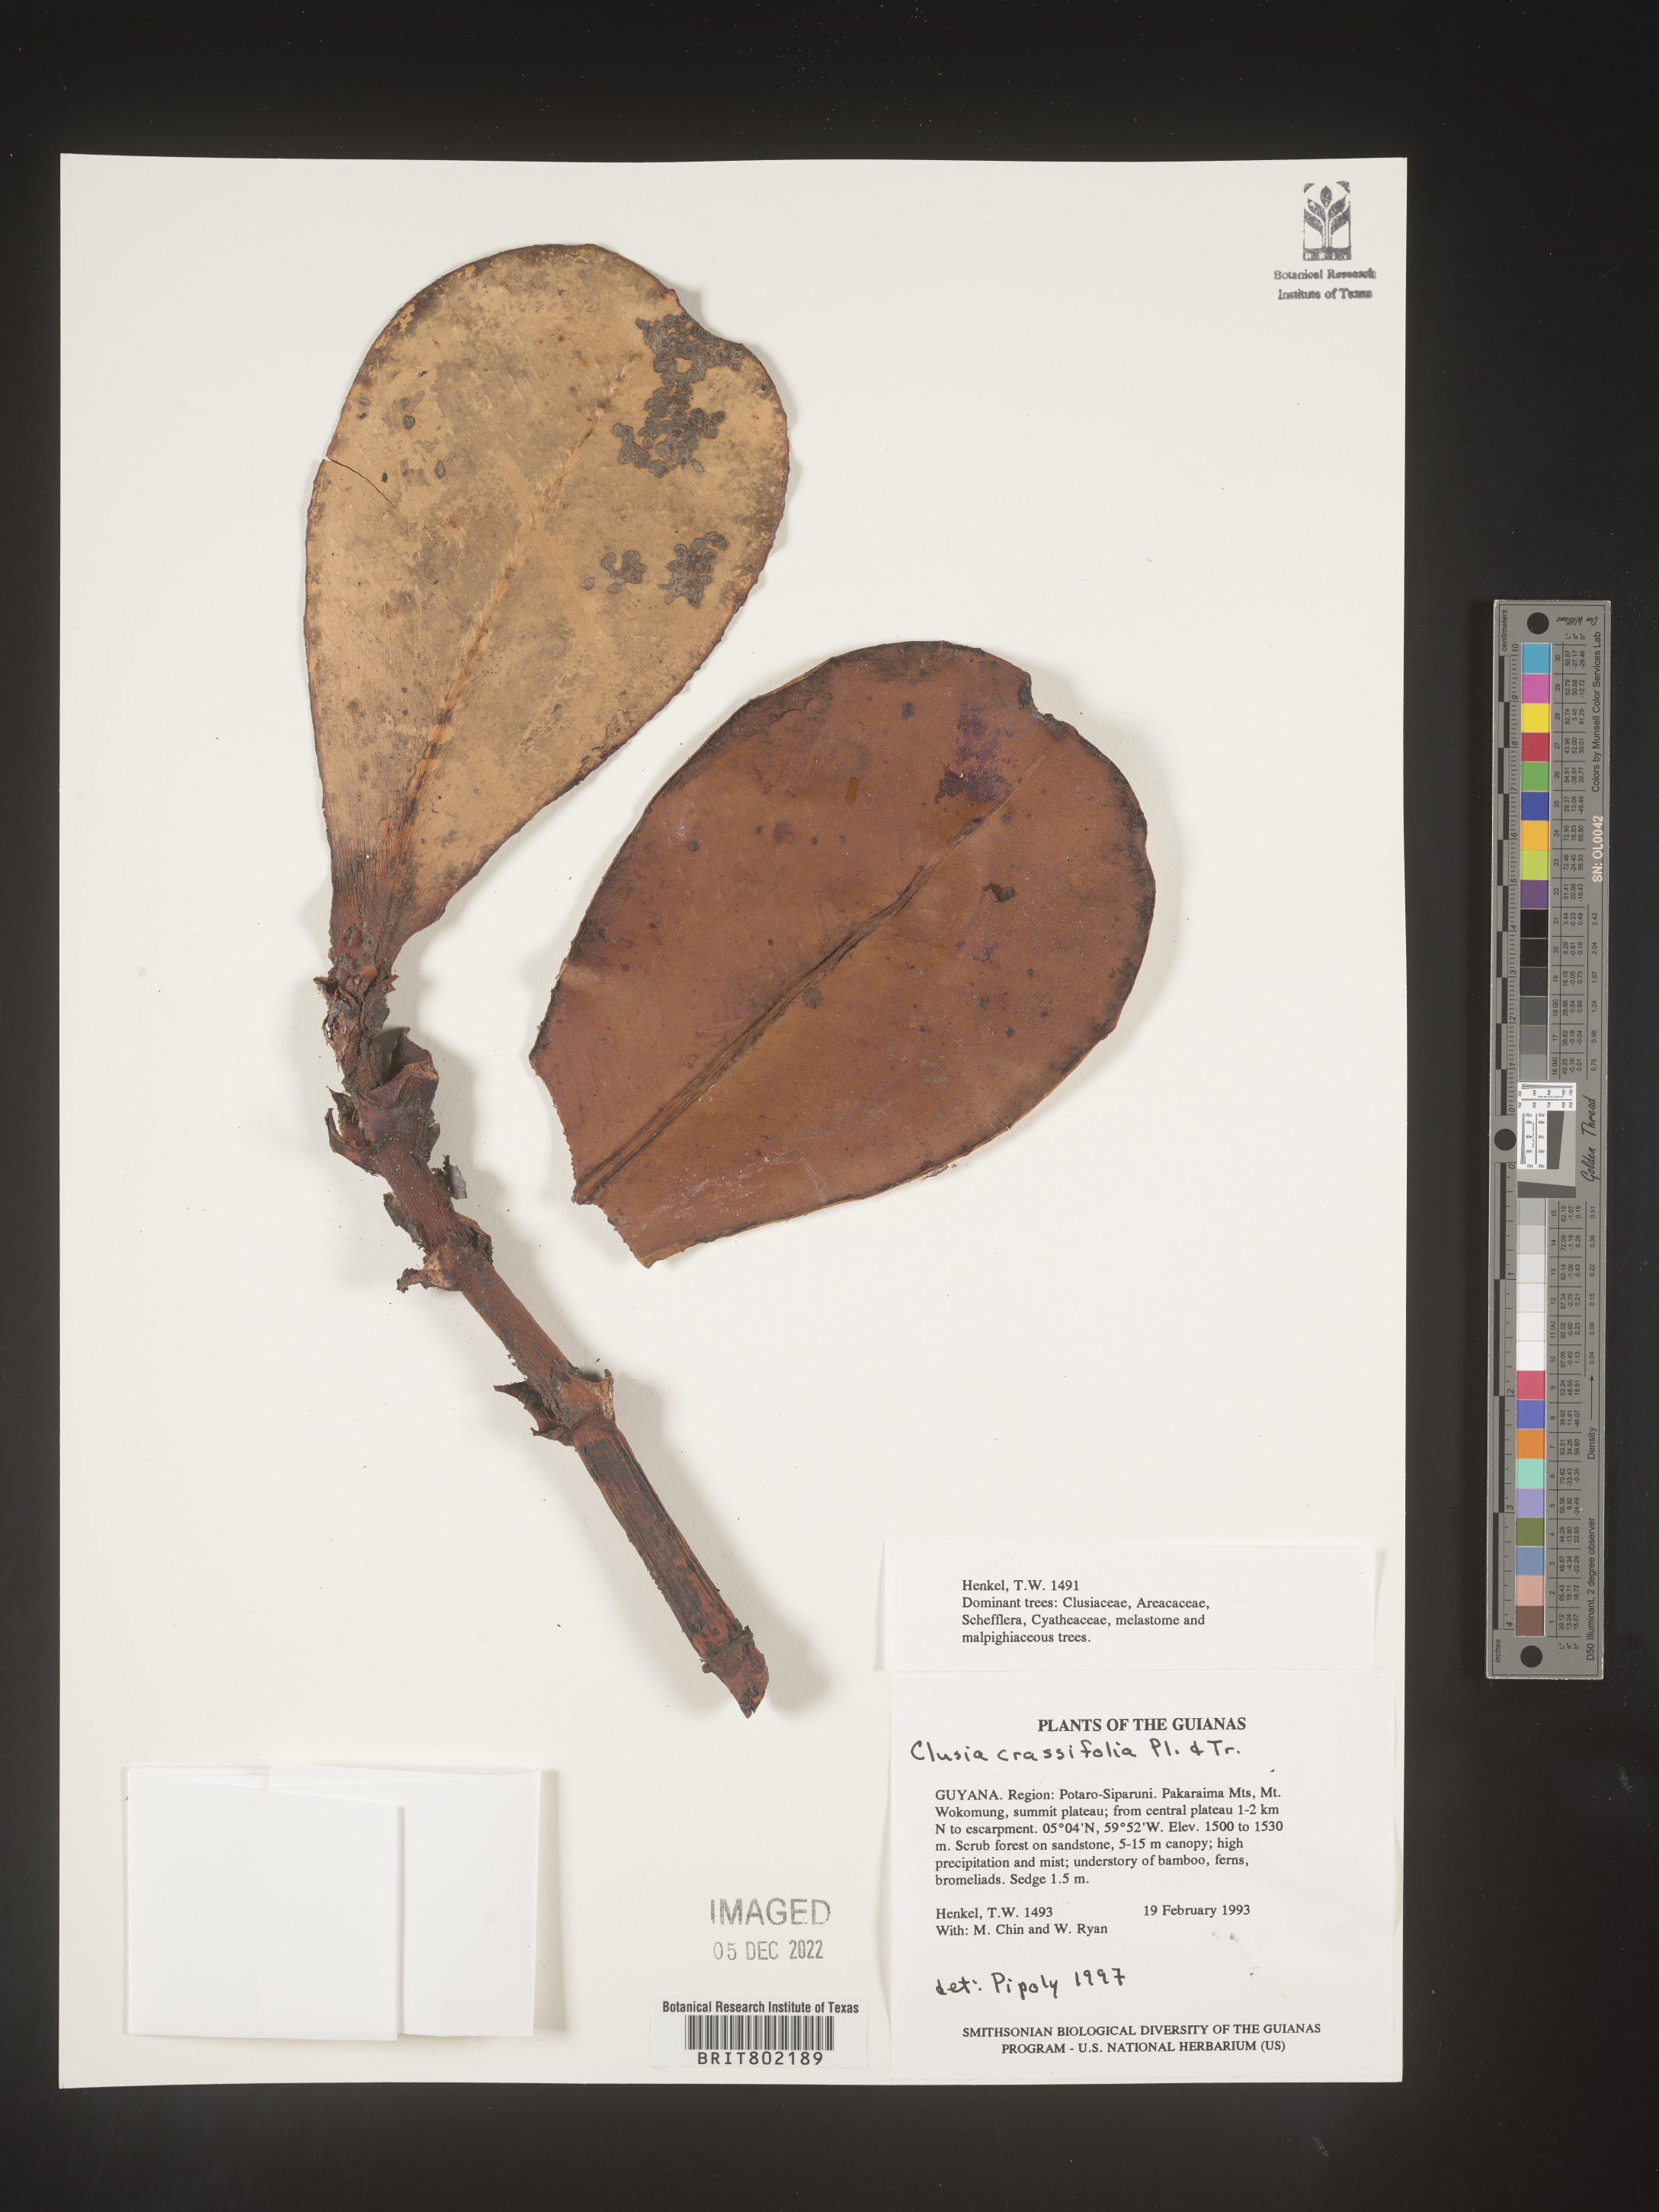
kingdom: Plantae
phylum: Tracheophyta
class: Magnoliopsida
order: Malpighiales
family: Clusiaceae
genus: Clusia
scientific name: Clusia crassifolia
